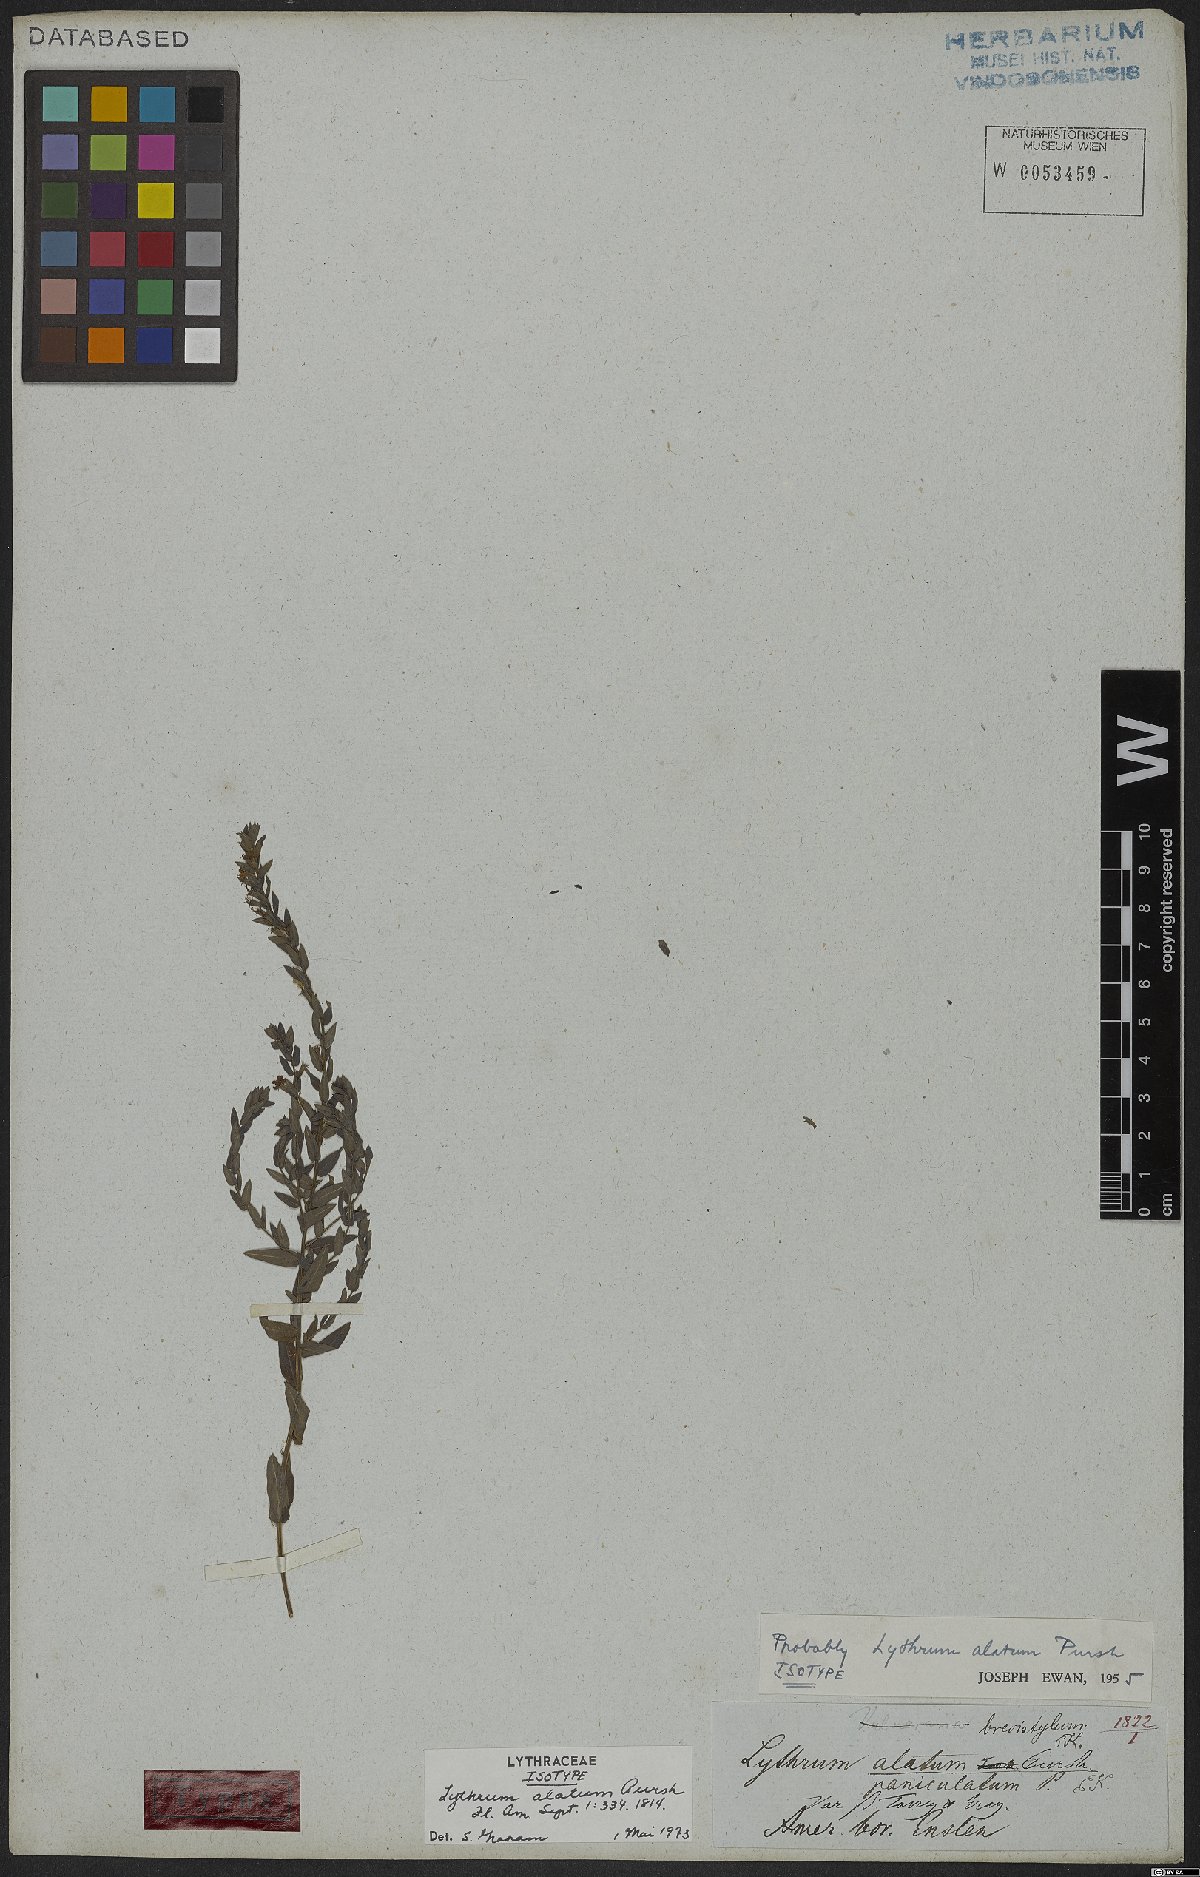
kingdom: Plantae
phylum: Tracheophyta
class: Magnoliopsida
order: Myrtales
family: Lythraceae
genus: Lythrum
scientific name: Lythrum alatum
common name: Winged loosestrife
